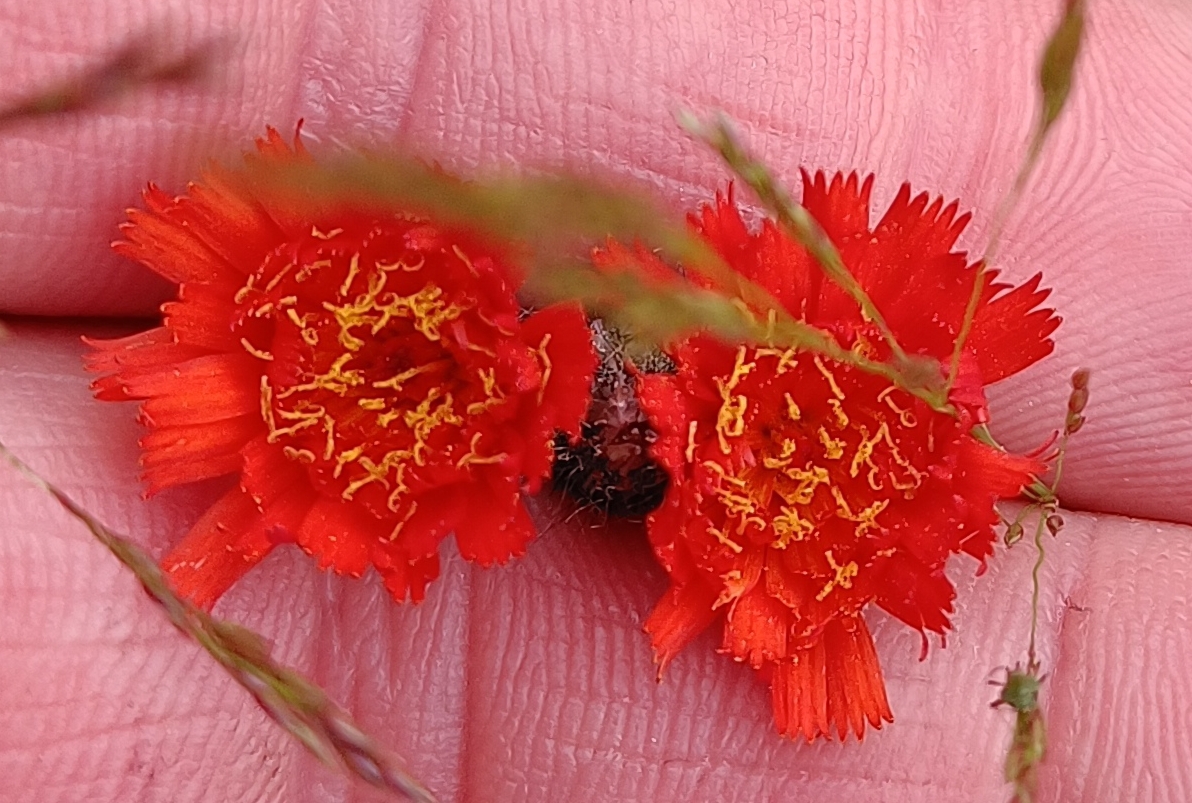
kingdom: Plantae
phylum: Tracheophyta
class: Magnoliopsida
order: Asterales
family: Asteraceae
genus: Pilosella
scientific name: Pilosella aurantiaca
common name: Pomerans-høgeurt
